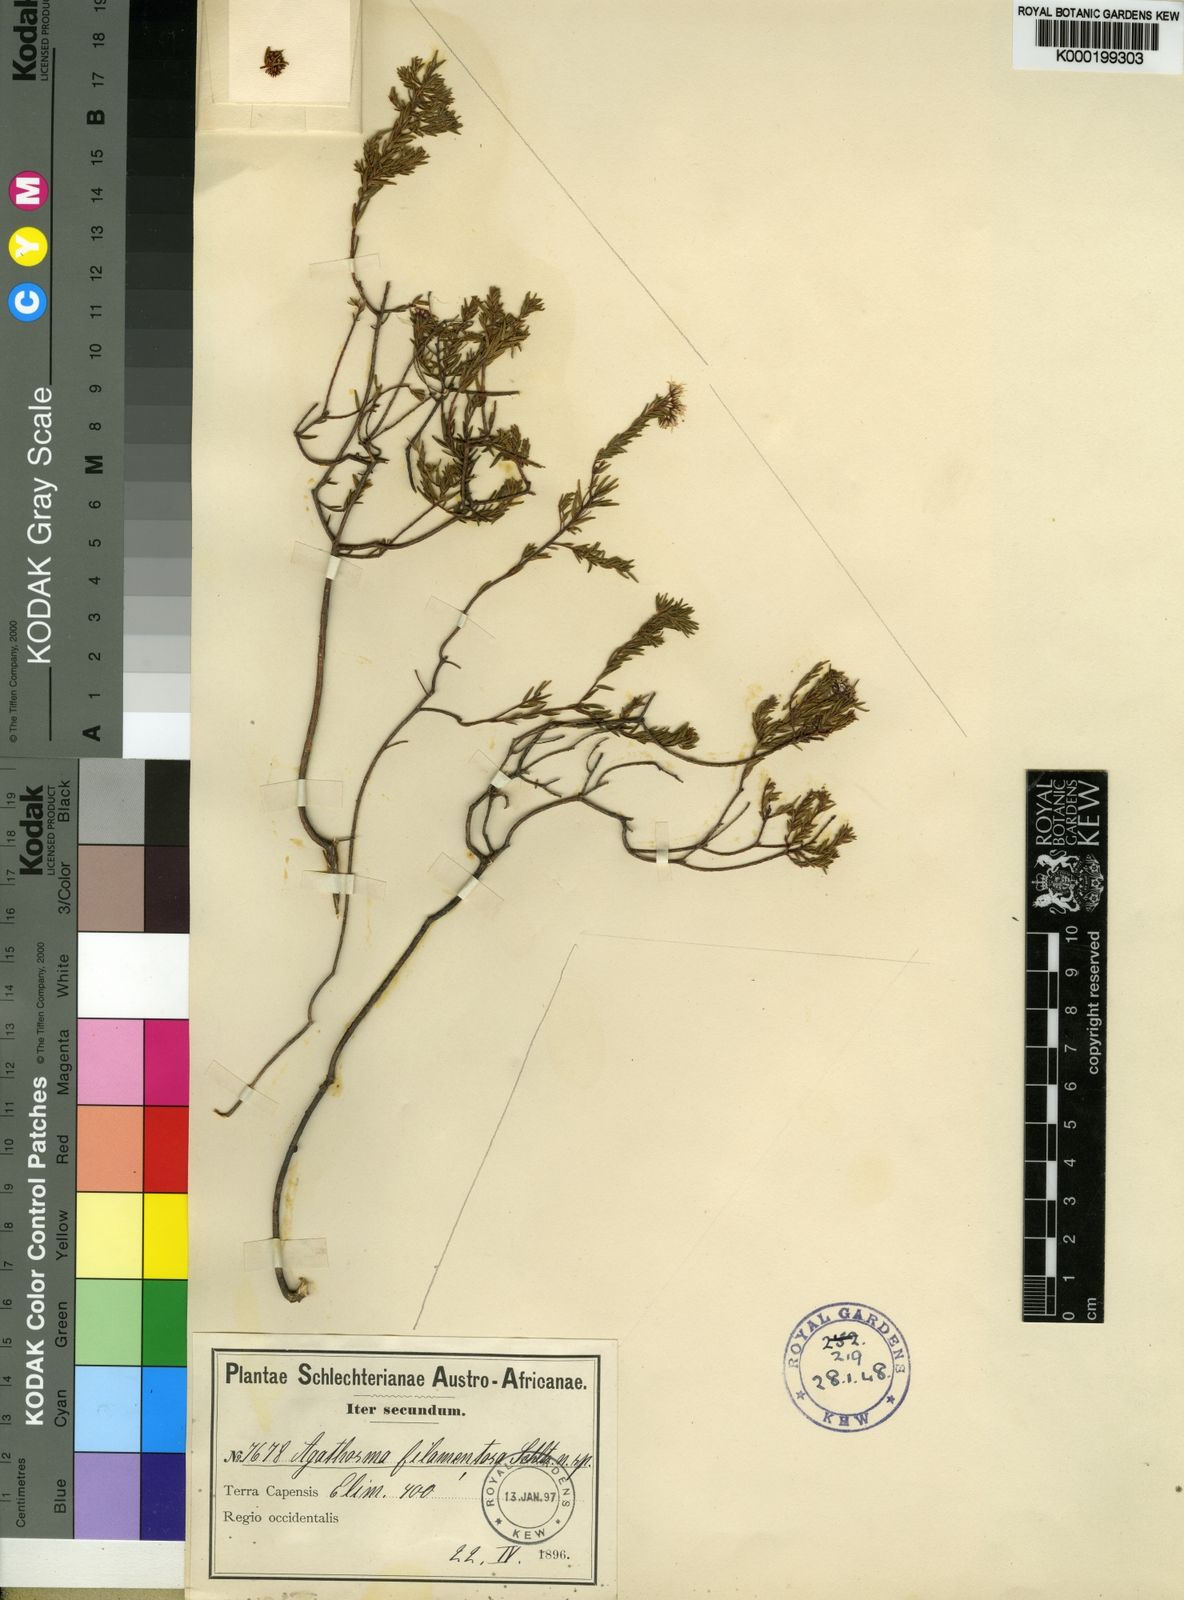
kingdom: Plantae
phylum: Tracheophyta
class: Magnoliopsida
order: Sapindales
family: Rutaceae
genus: Agathosma
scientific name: Agathosma
